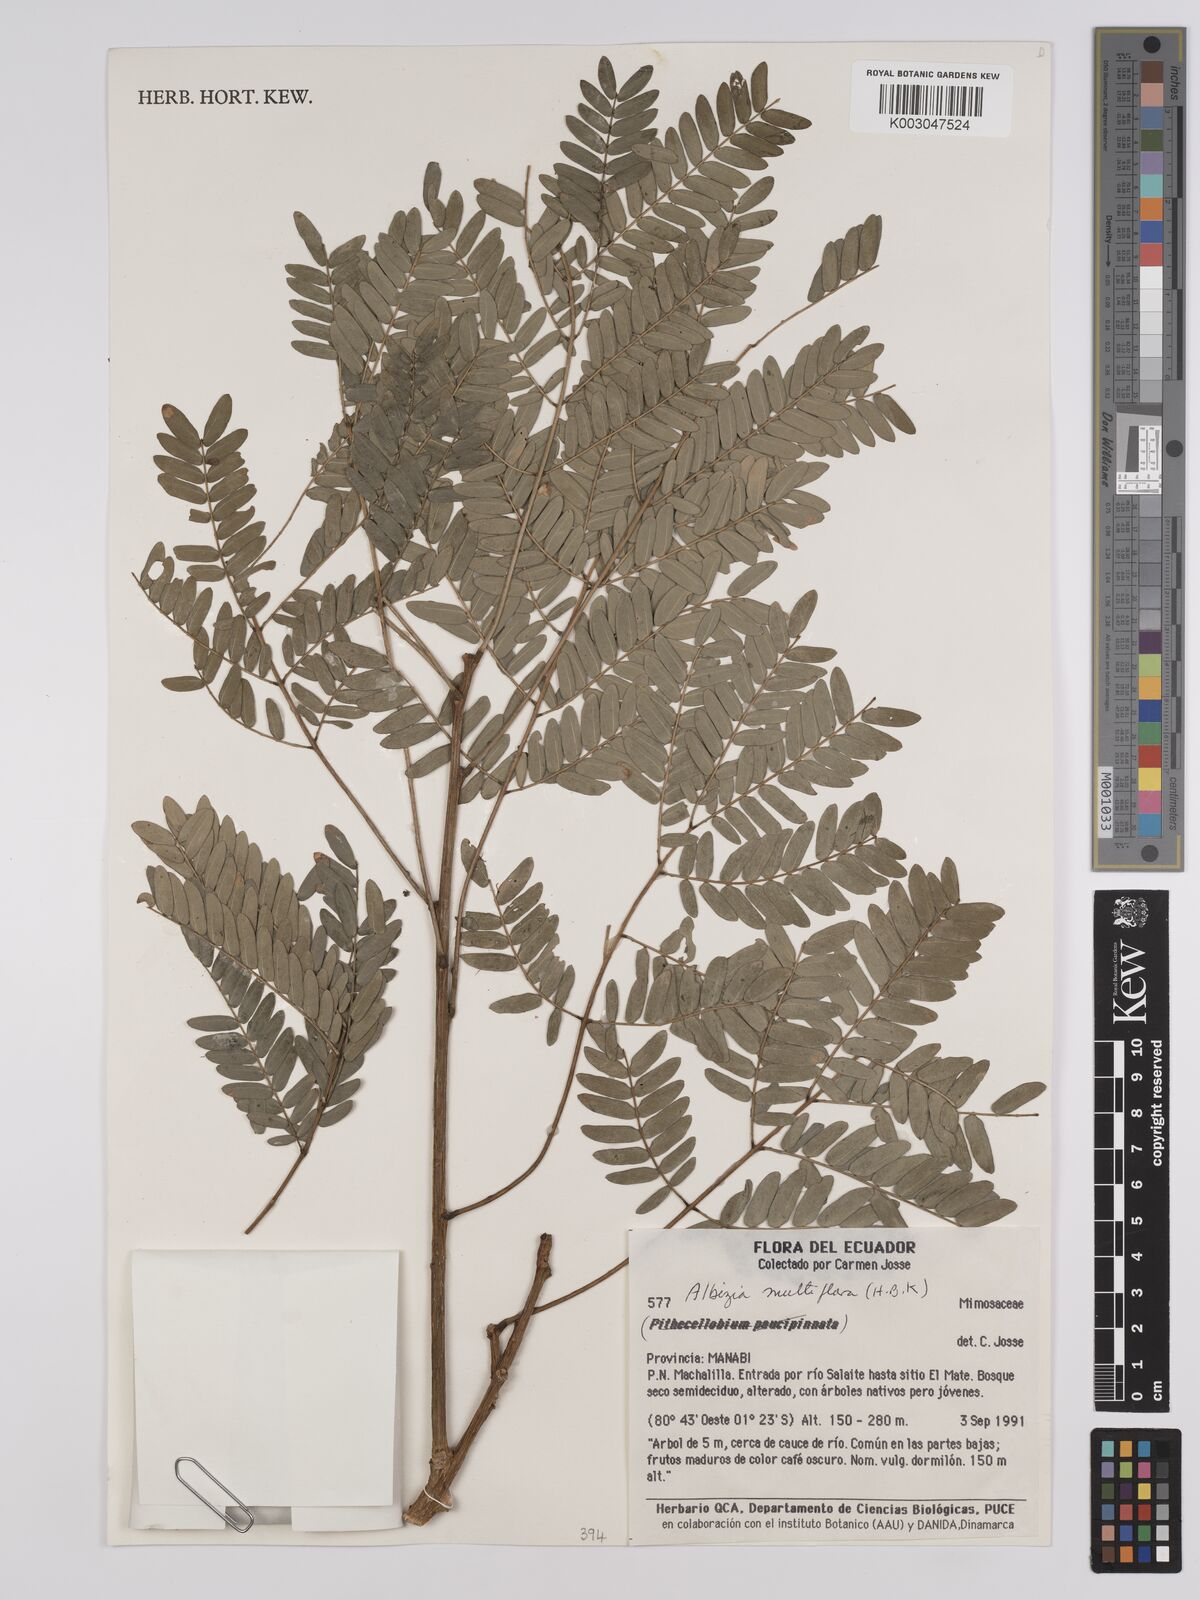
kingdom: Plantae
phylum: Tracheophyta
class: Magnoliopsida
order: Fabales
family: Fabaceae
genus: Albizia
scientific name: Albizia multiflora
